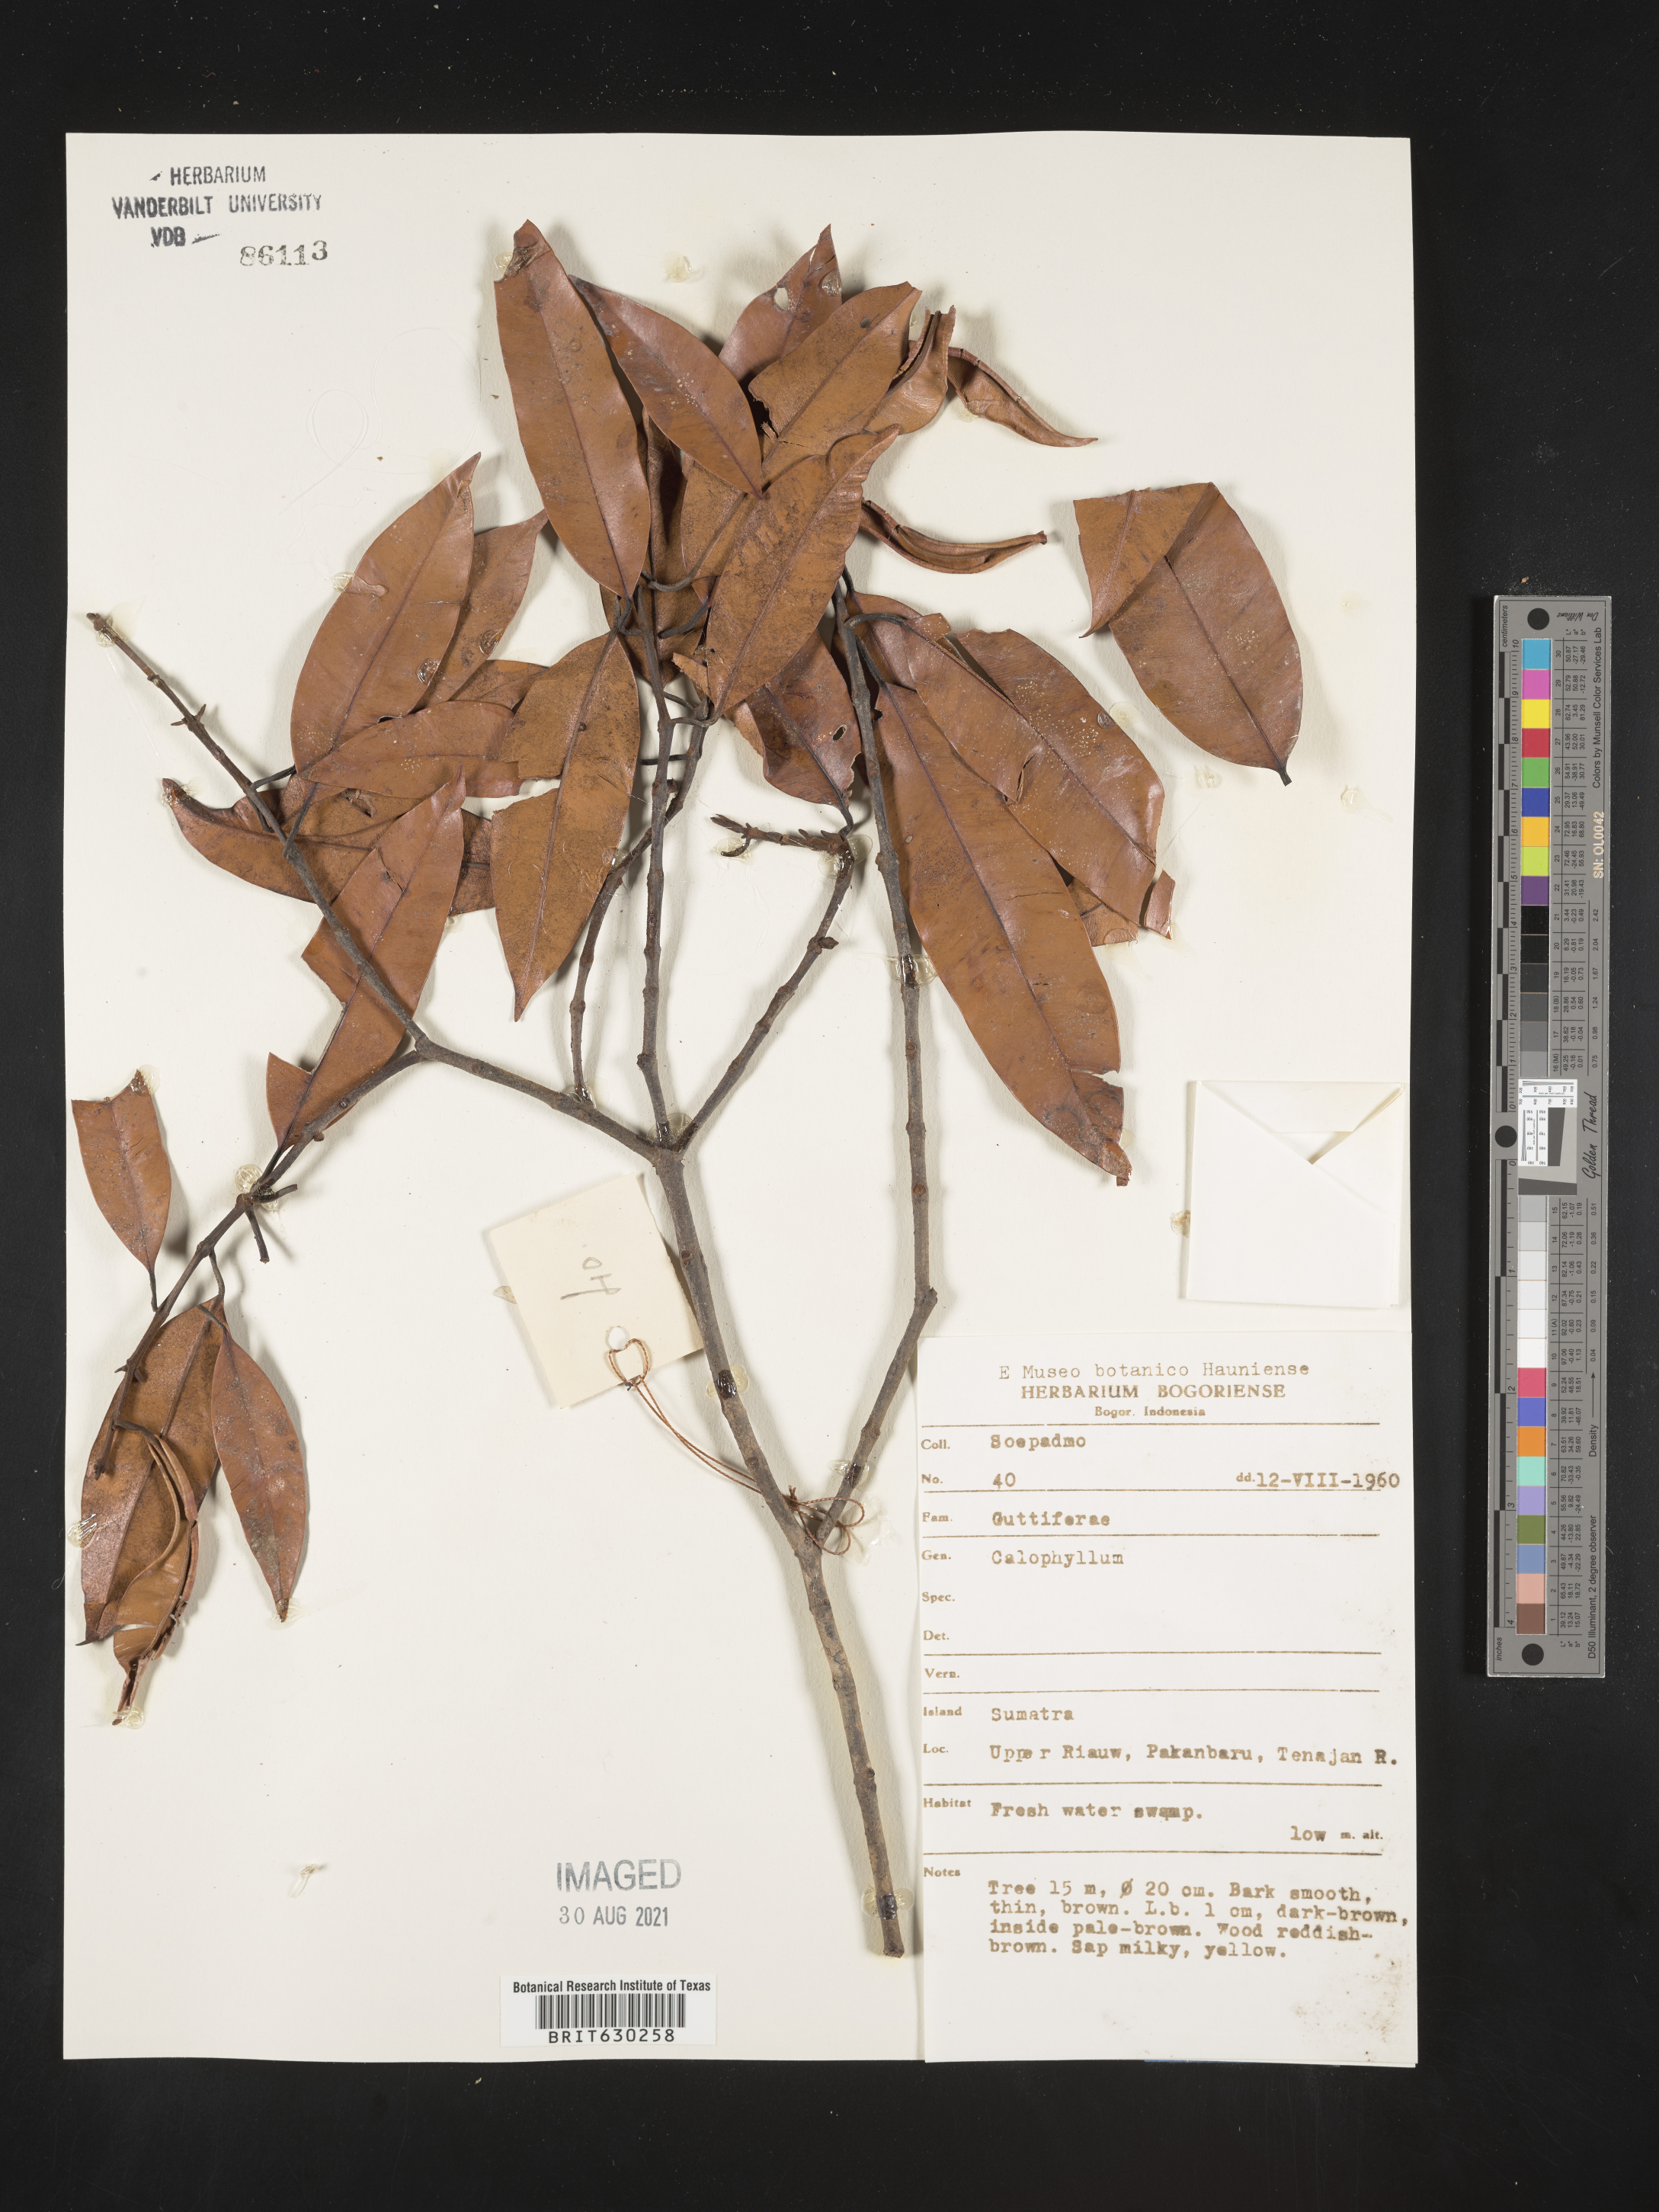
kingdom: Plantae
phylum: Tracheophyta
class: Magnoliopsida
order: Malpighiales
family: Calophyllaceae
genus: Calophyllum
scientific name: Calophyllum
